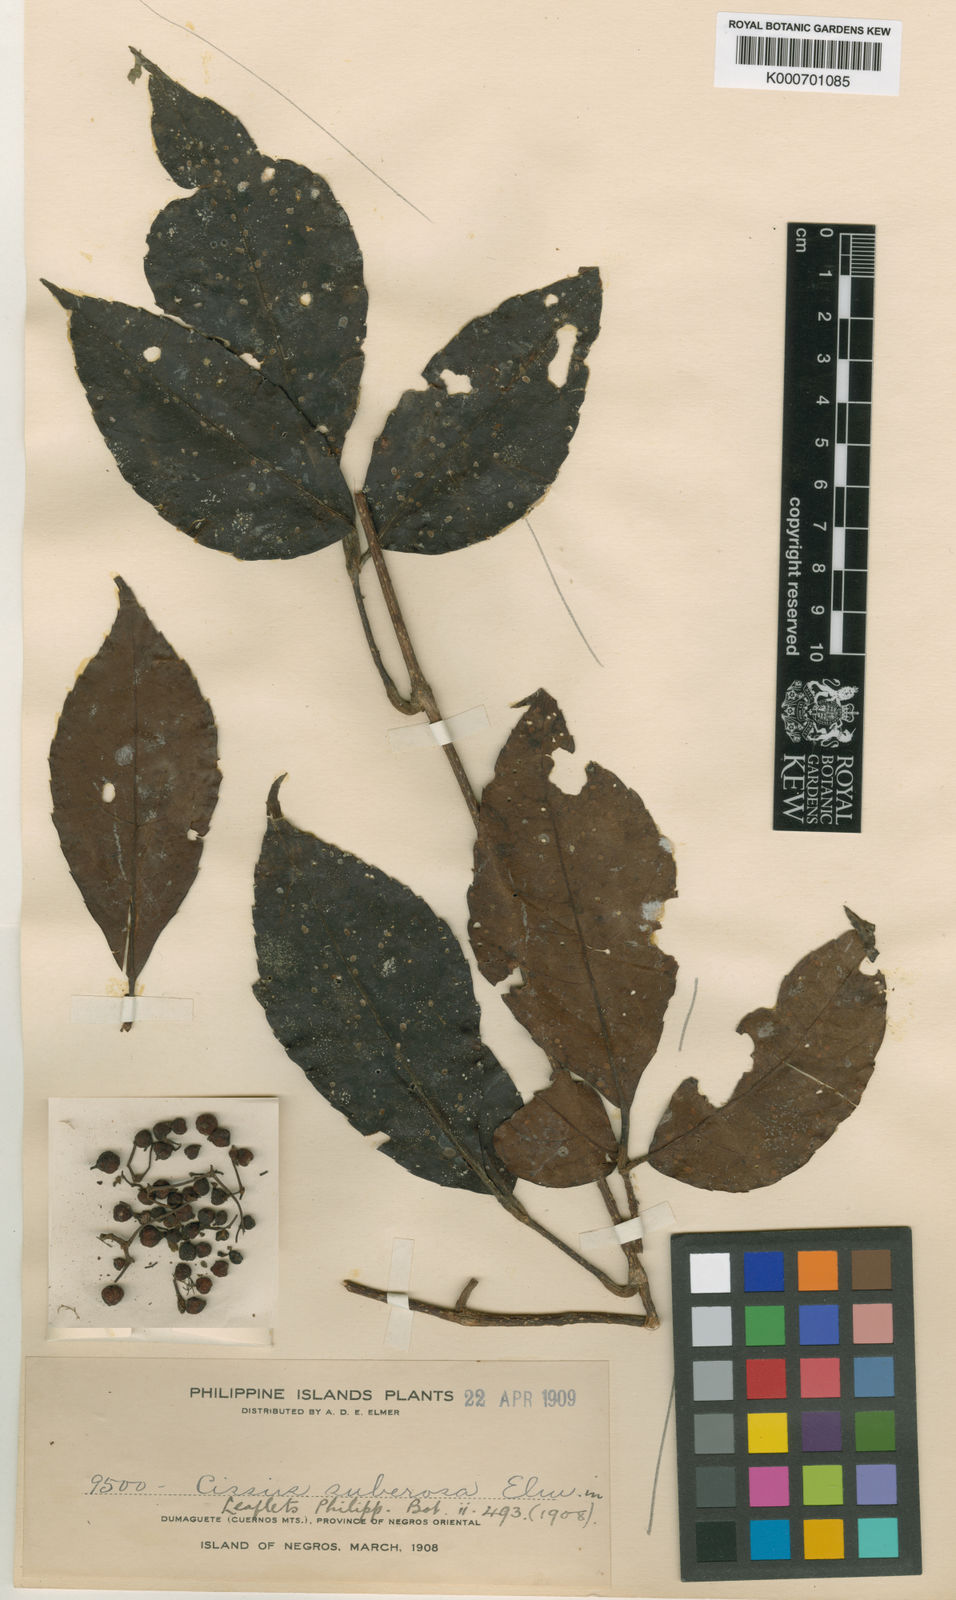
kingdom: Plantae
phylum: Tracheophyta
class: Magnoliopsida
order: Vitales
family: Vitaceae
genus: Tetrastigma
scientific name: Tetrastigma papillosum
